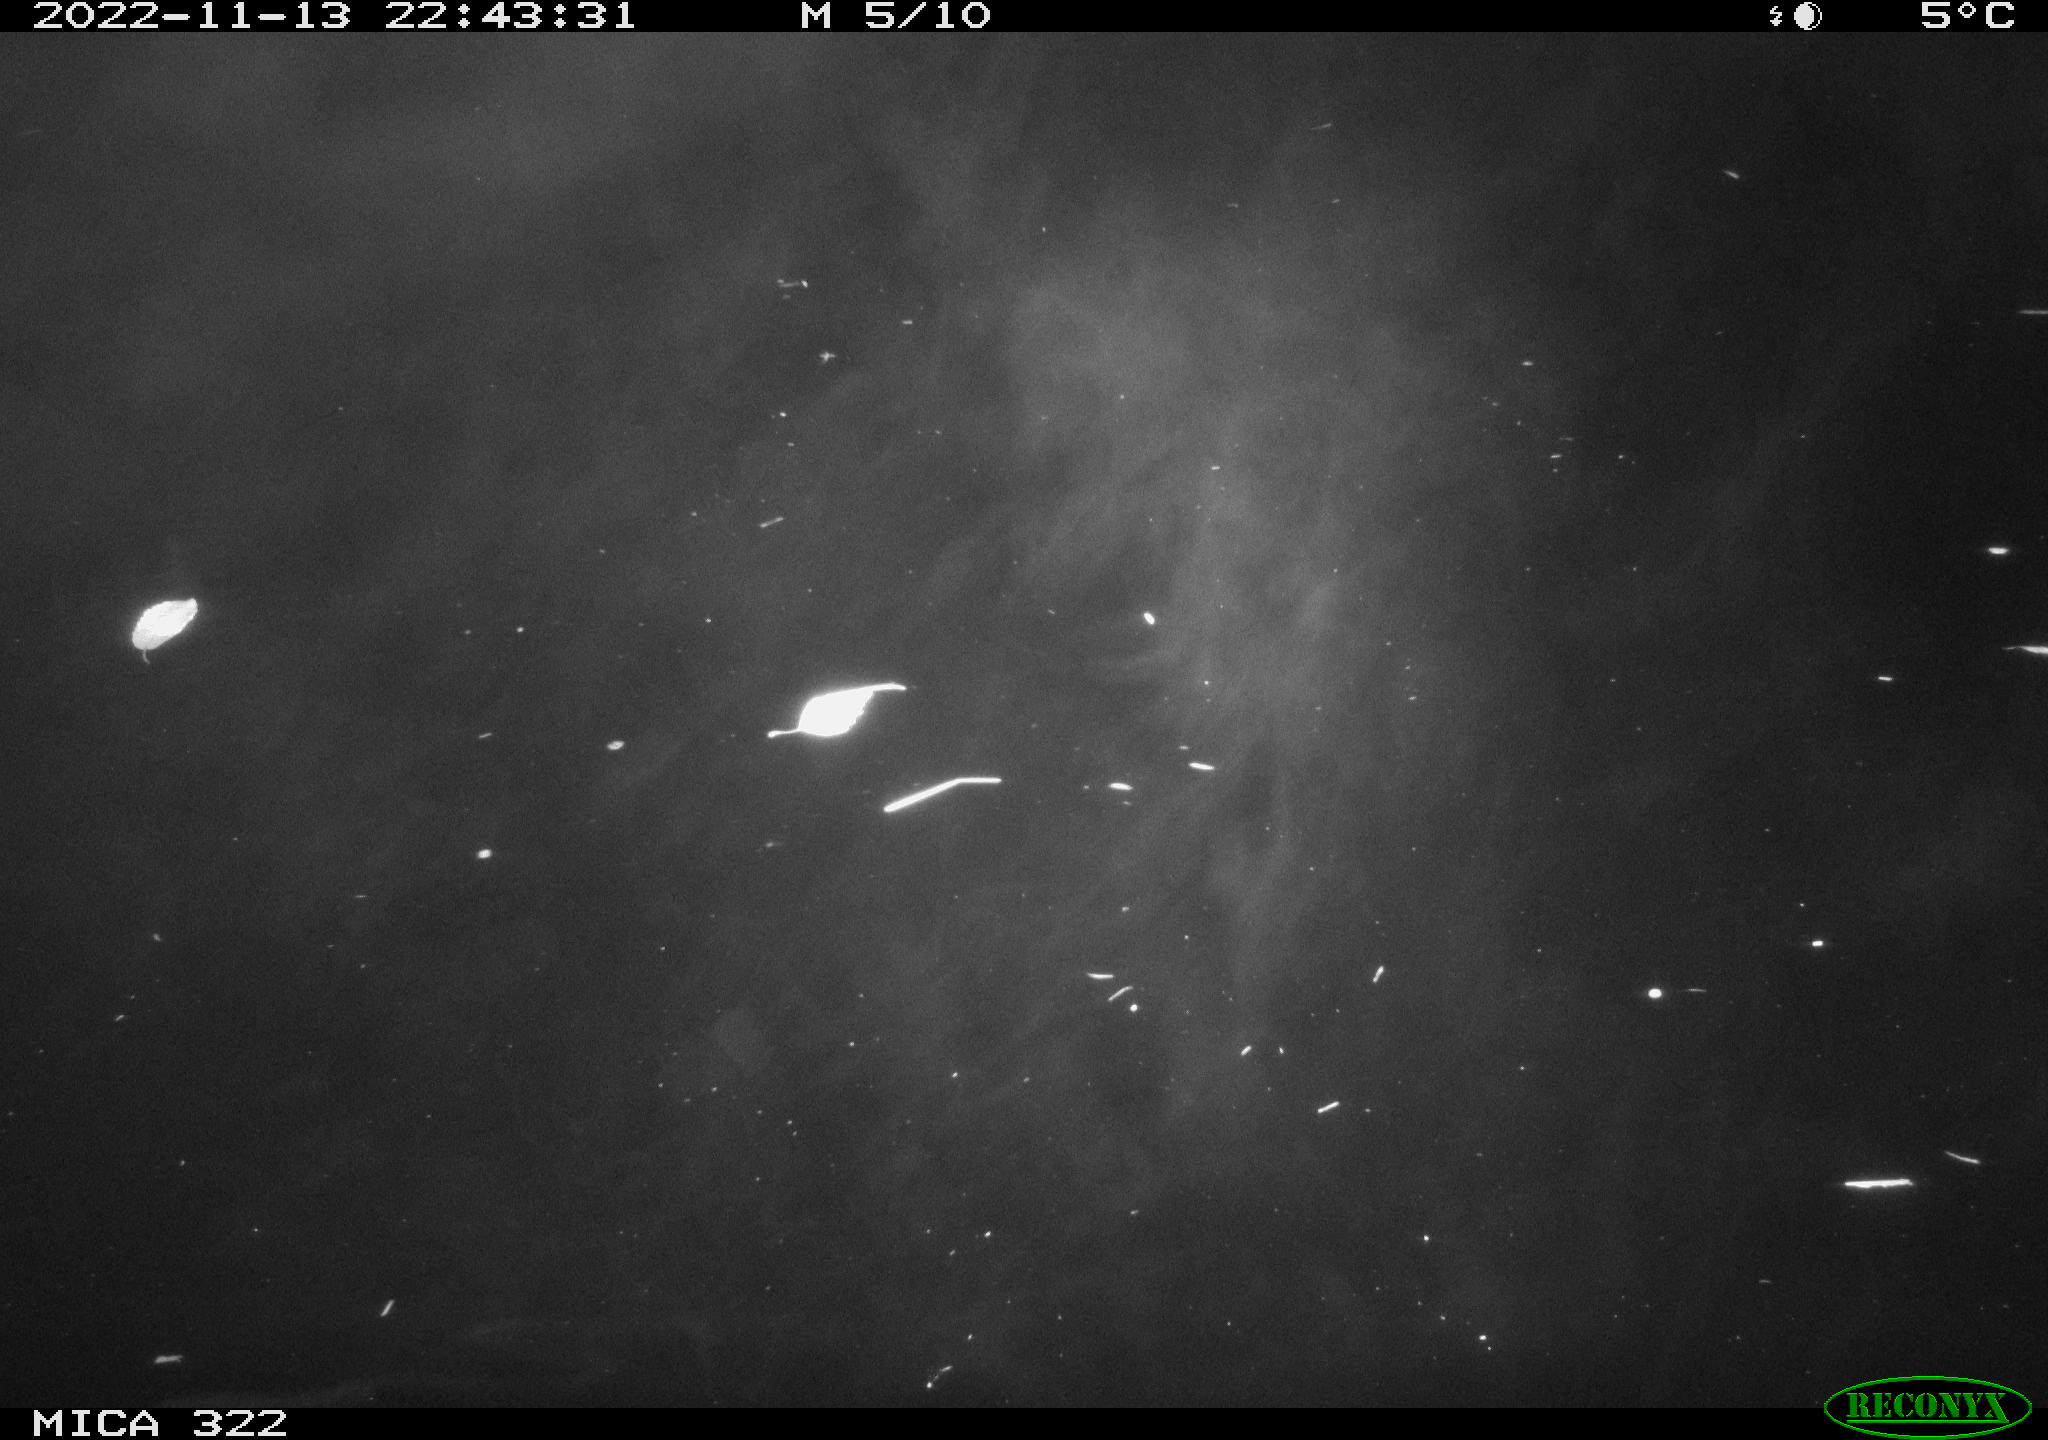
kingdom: Animalia
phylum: Chordata
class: Mammalia
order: Rodentia
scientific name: Rodentia
